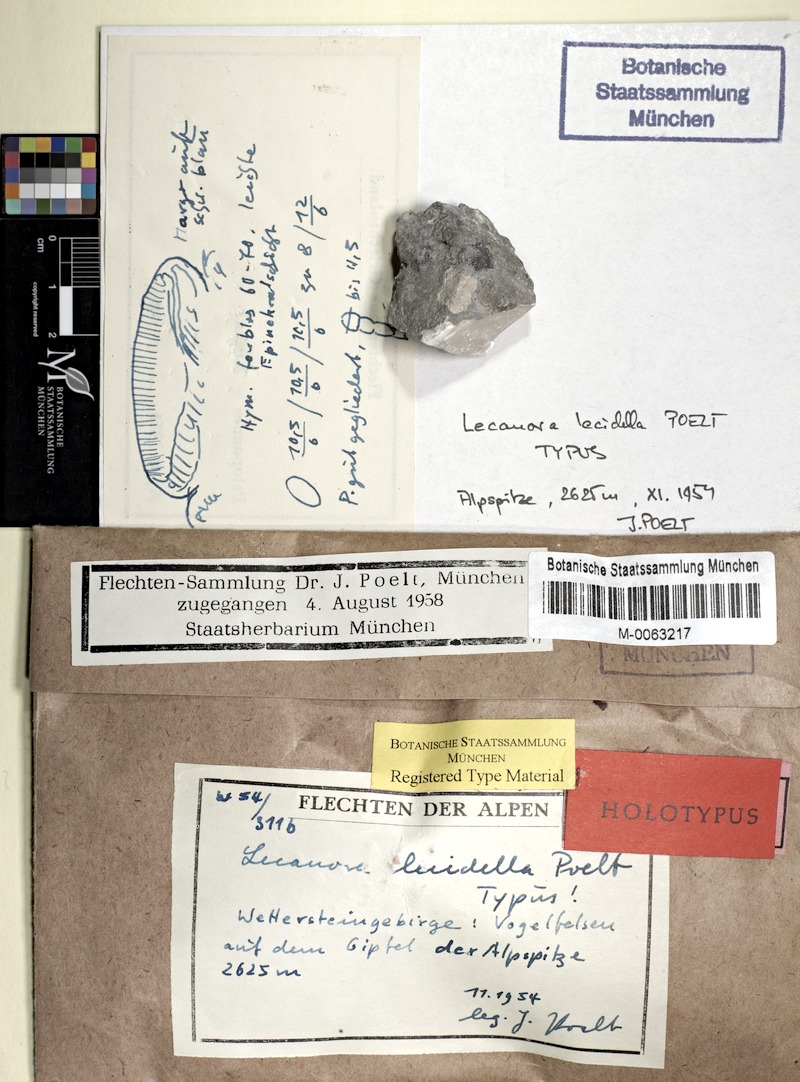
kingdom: Fungi
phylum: Ascomycota
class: Lecanoromycetes
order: Lecanorales
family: Lecanoraceae
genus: Polyozosia
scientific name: Polyozosia agardhiana
